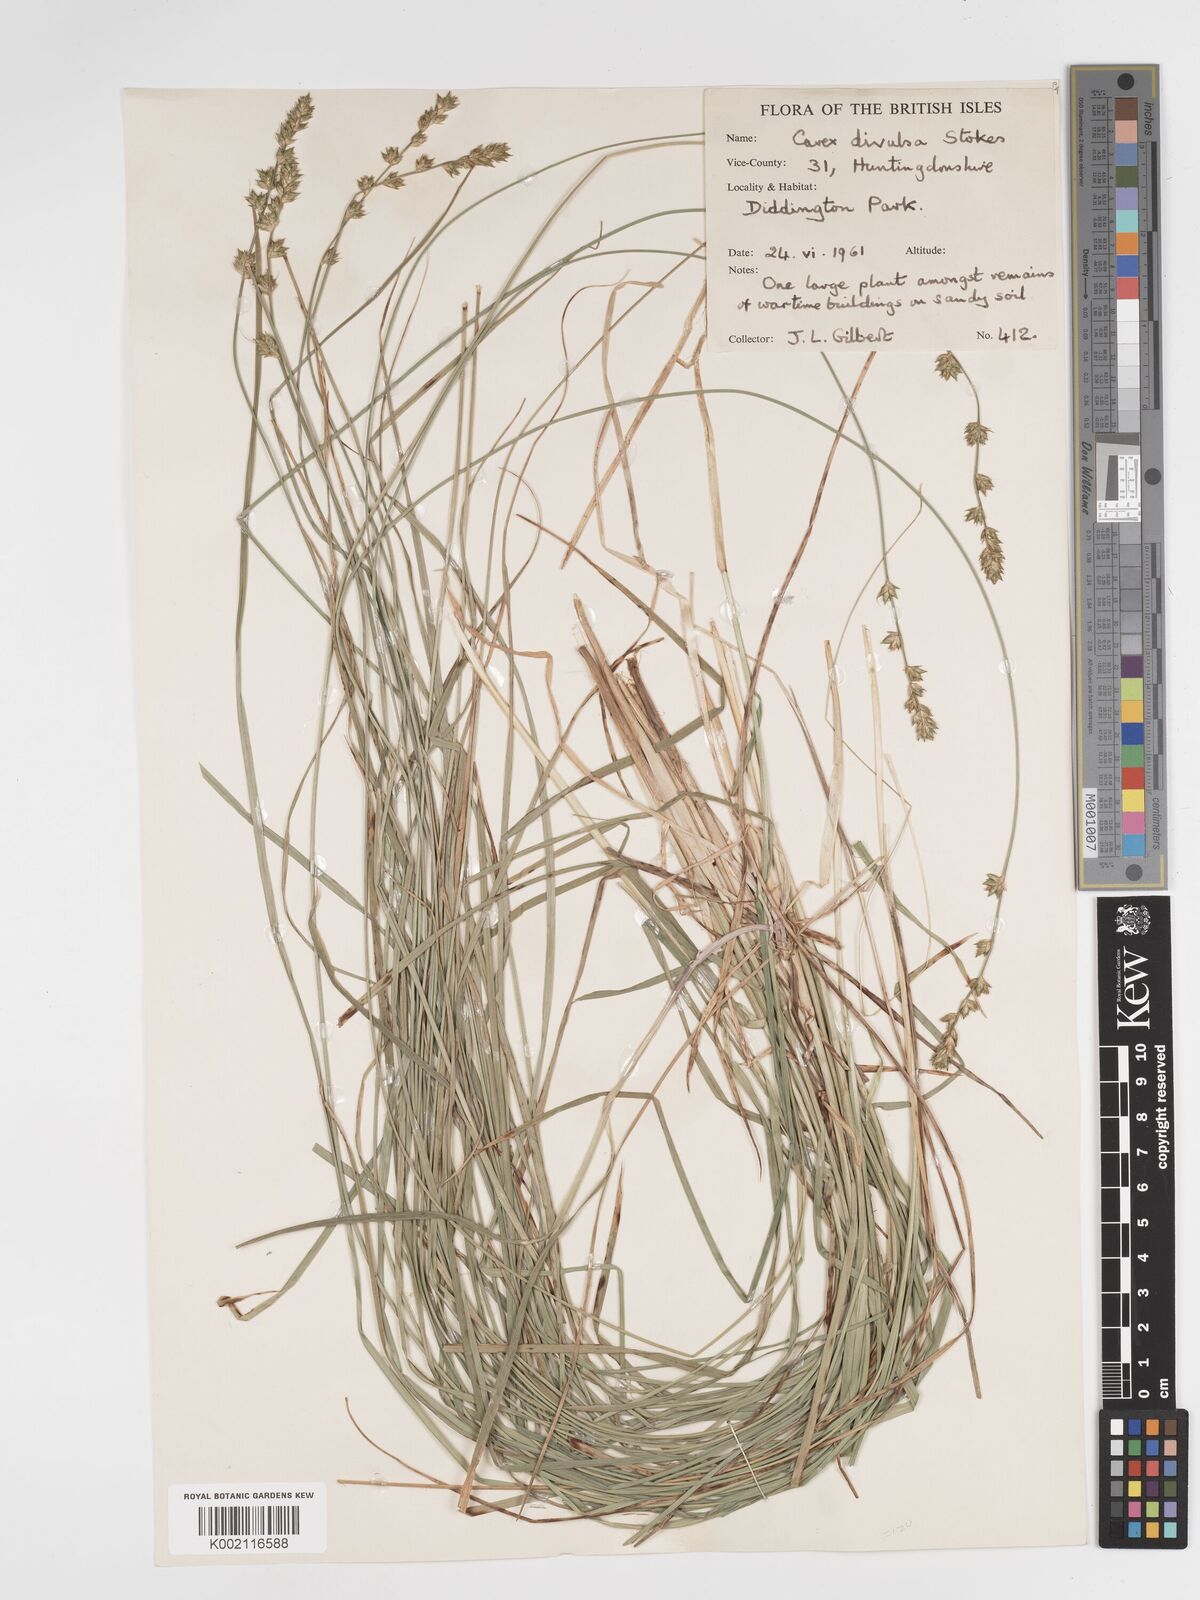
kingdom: Plantae
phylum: Tracheophyta
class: Liliopsida
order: Poales
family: Cyperaceae
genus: Carex
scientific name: Carex divulsa
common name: Grassland sedge
